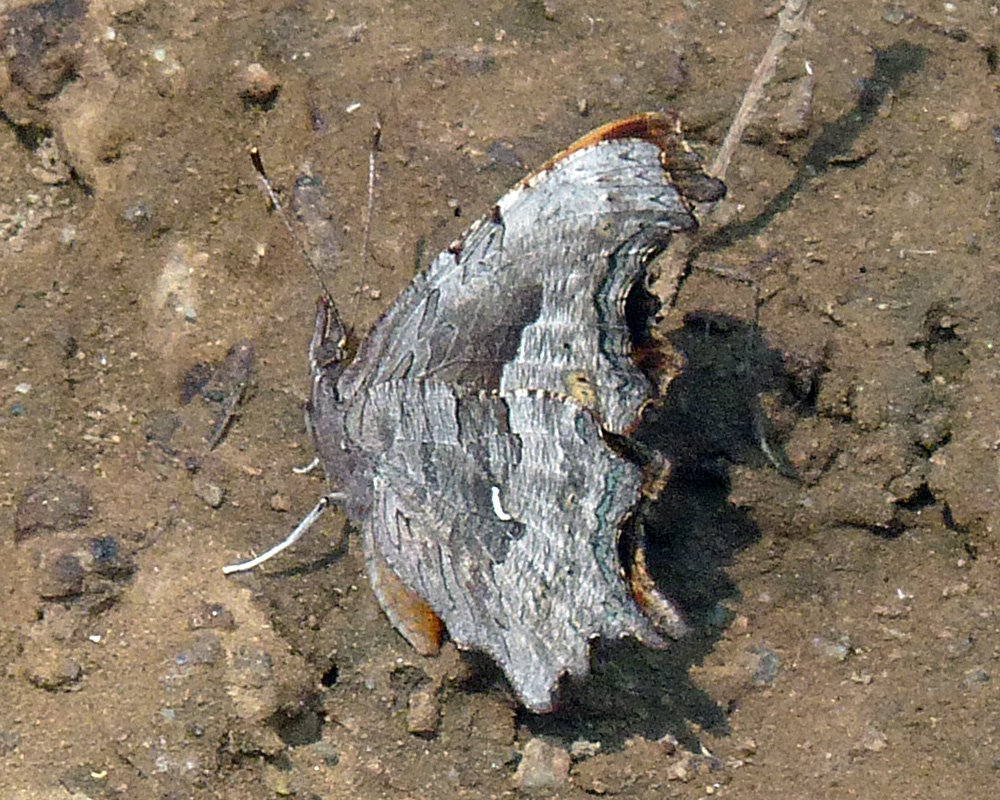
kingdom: Animalia
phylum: Arthropoda
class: Insecta
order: Lepidoptera
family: Nymphalidae
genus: Polygonia
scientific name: Polygonia gracilis
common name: Hoary Comma
